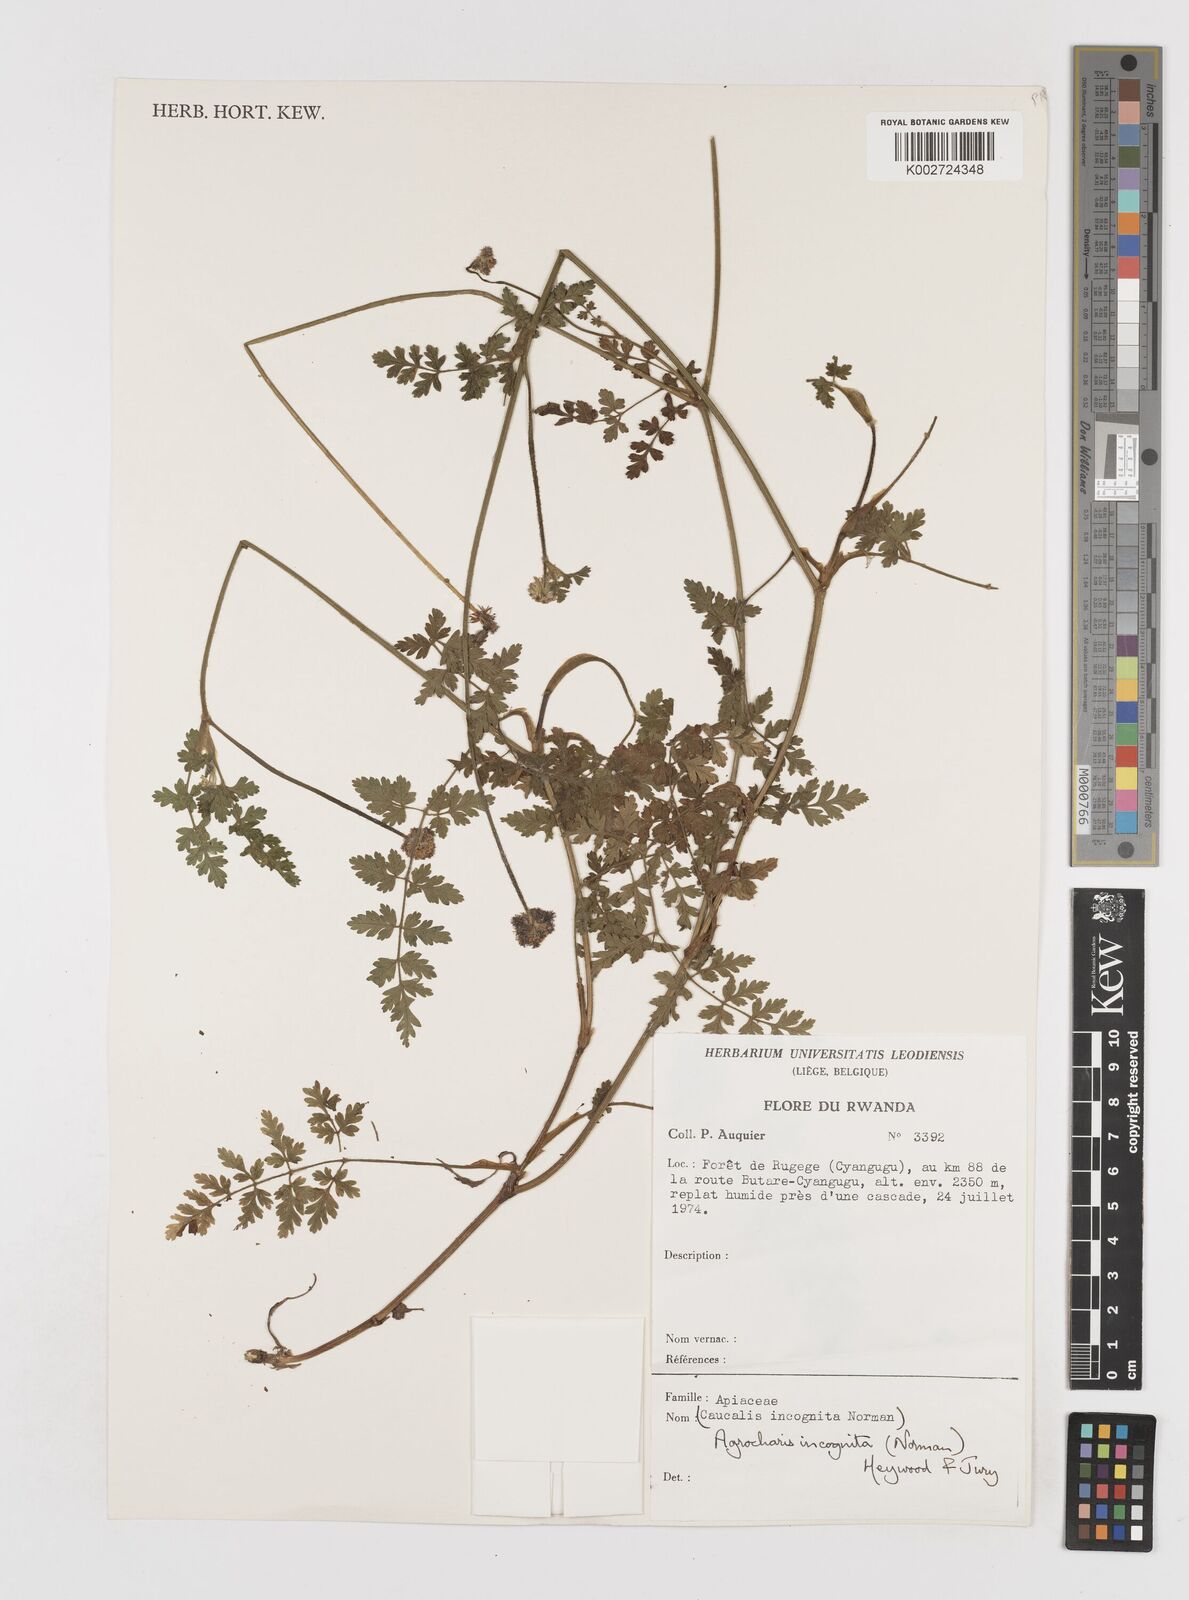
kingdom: Plantae
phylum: Tracheophyta
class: Magnoliopsida
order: Apiales
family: Apiaceae
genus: Daucus
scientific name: Daucus incognitus
